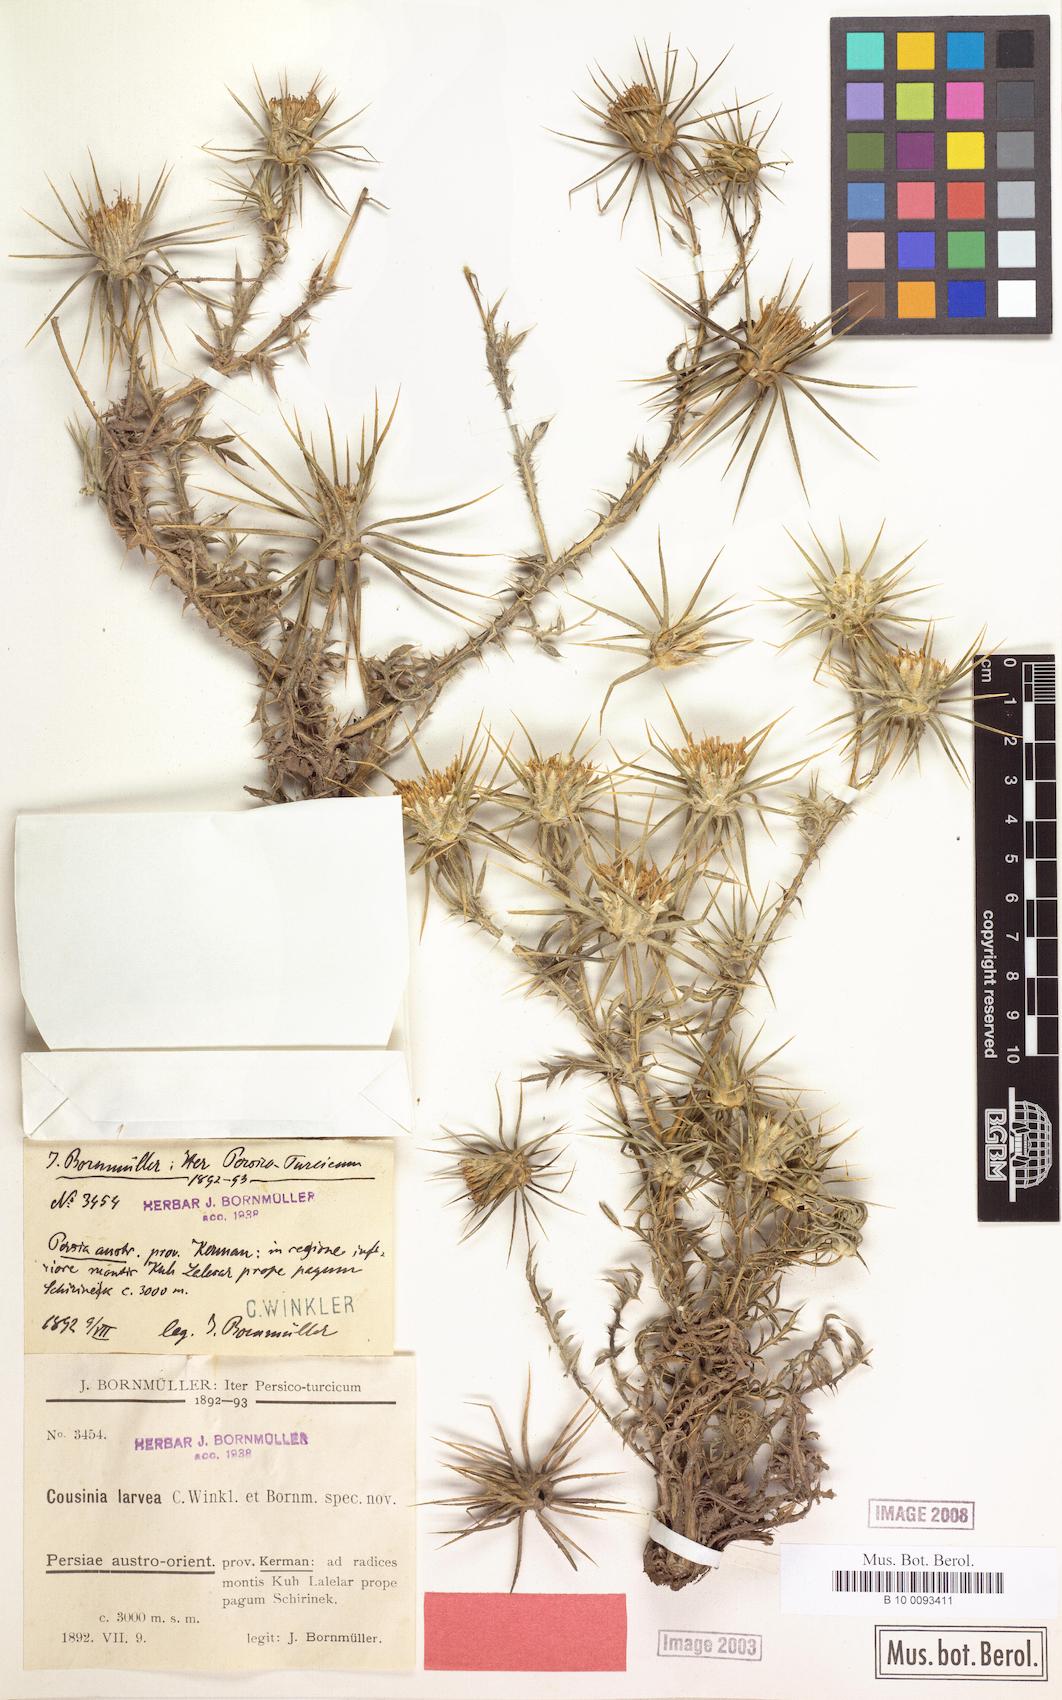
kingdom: Plantae
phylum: Tracheophyta
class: Magnoliopsida
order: Asterales
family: Asteraceae
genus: Cousinia
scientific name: Cousinia calcitrapa
